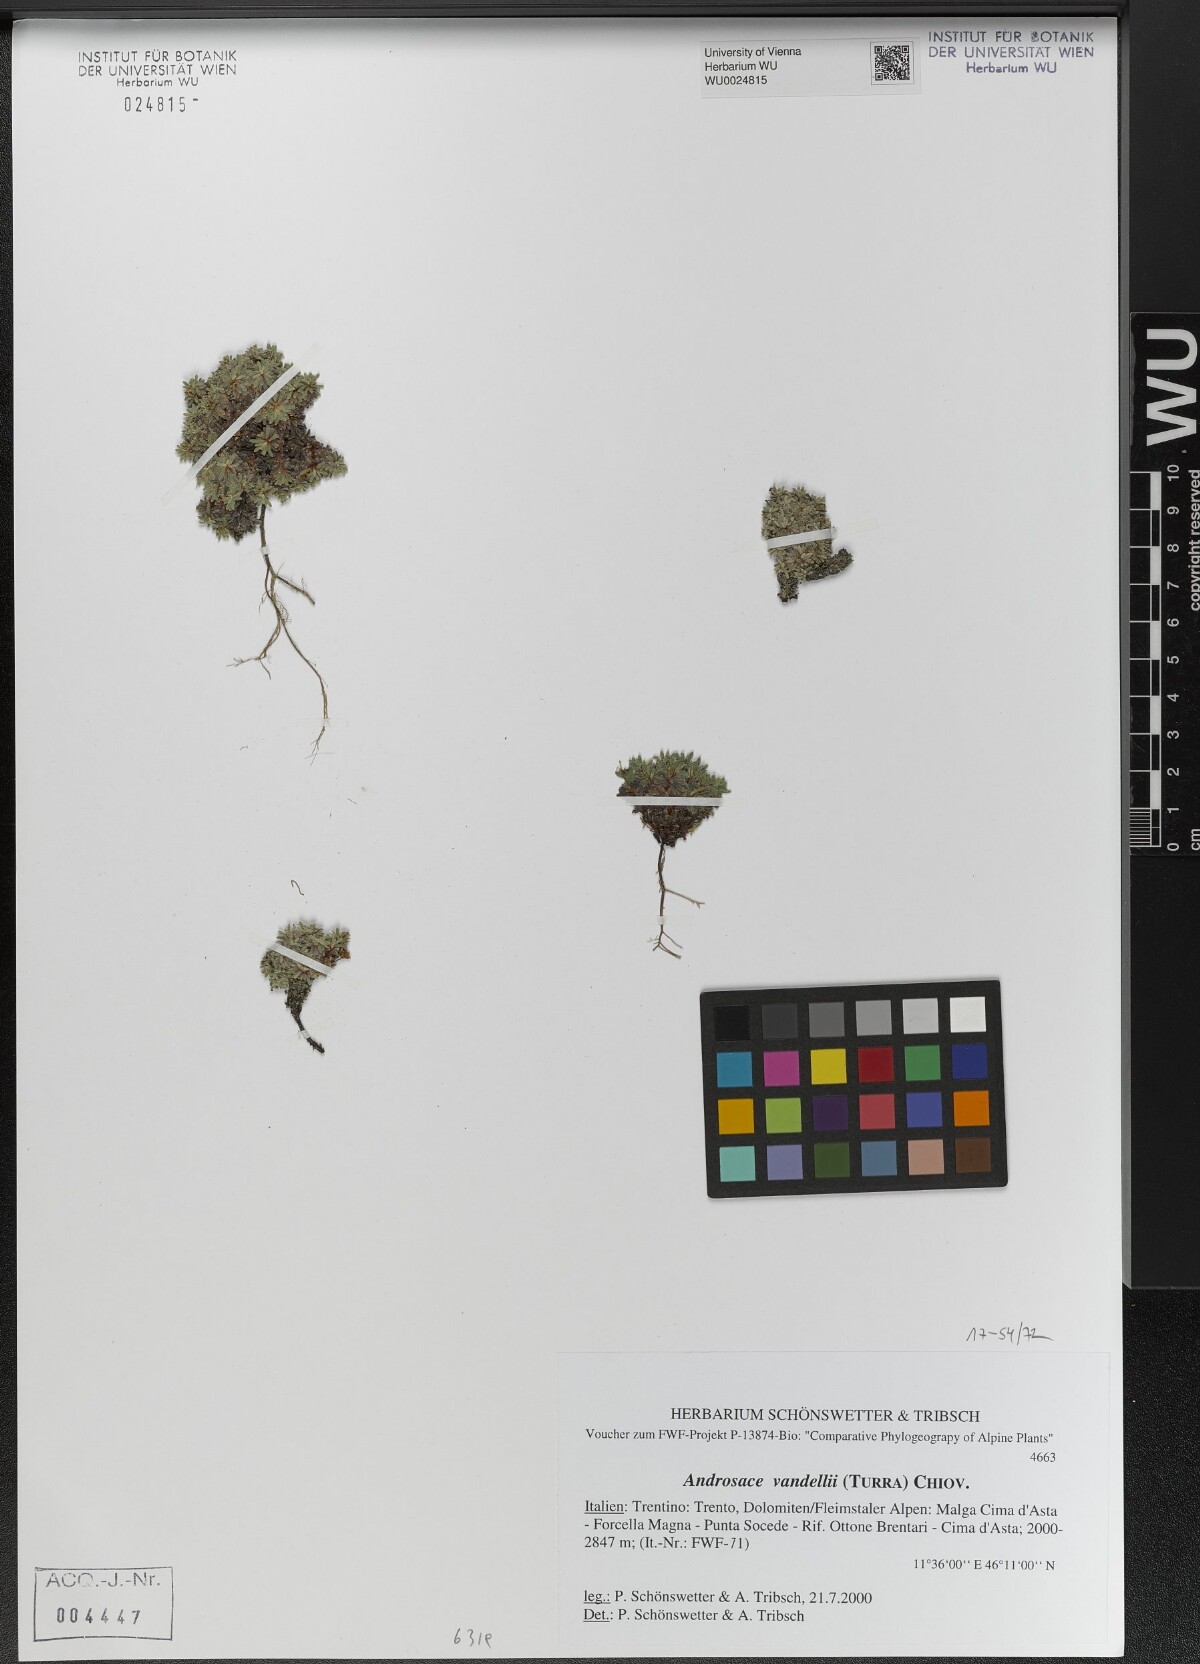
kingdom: Plantae
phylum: Tracheophyta
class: Magnoliopsida
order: Ericales
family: Primulaceae
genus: Androsace
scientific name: Androsace alpina
